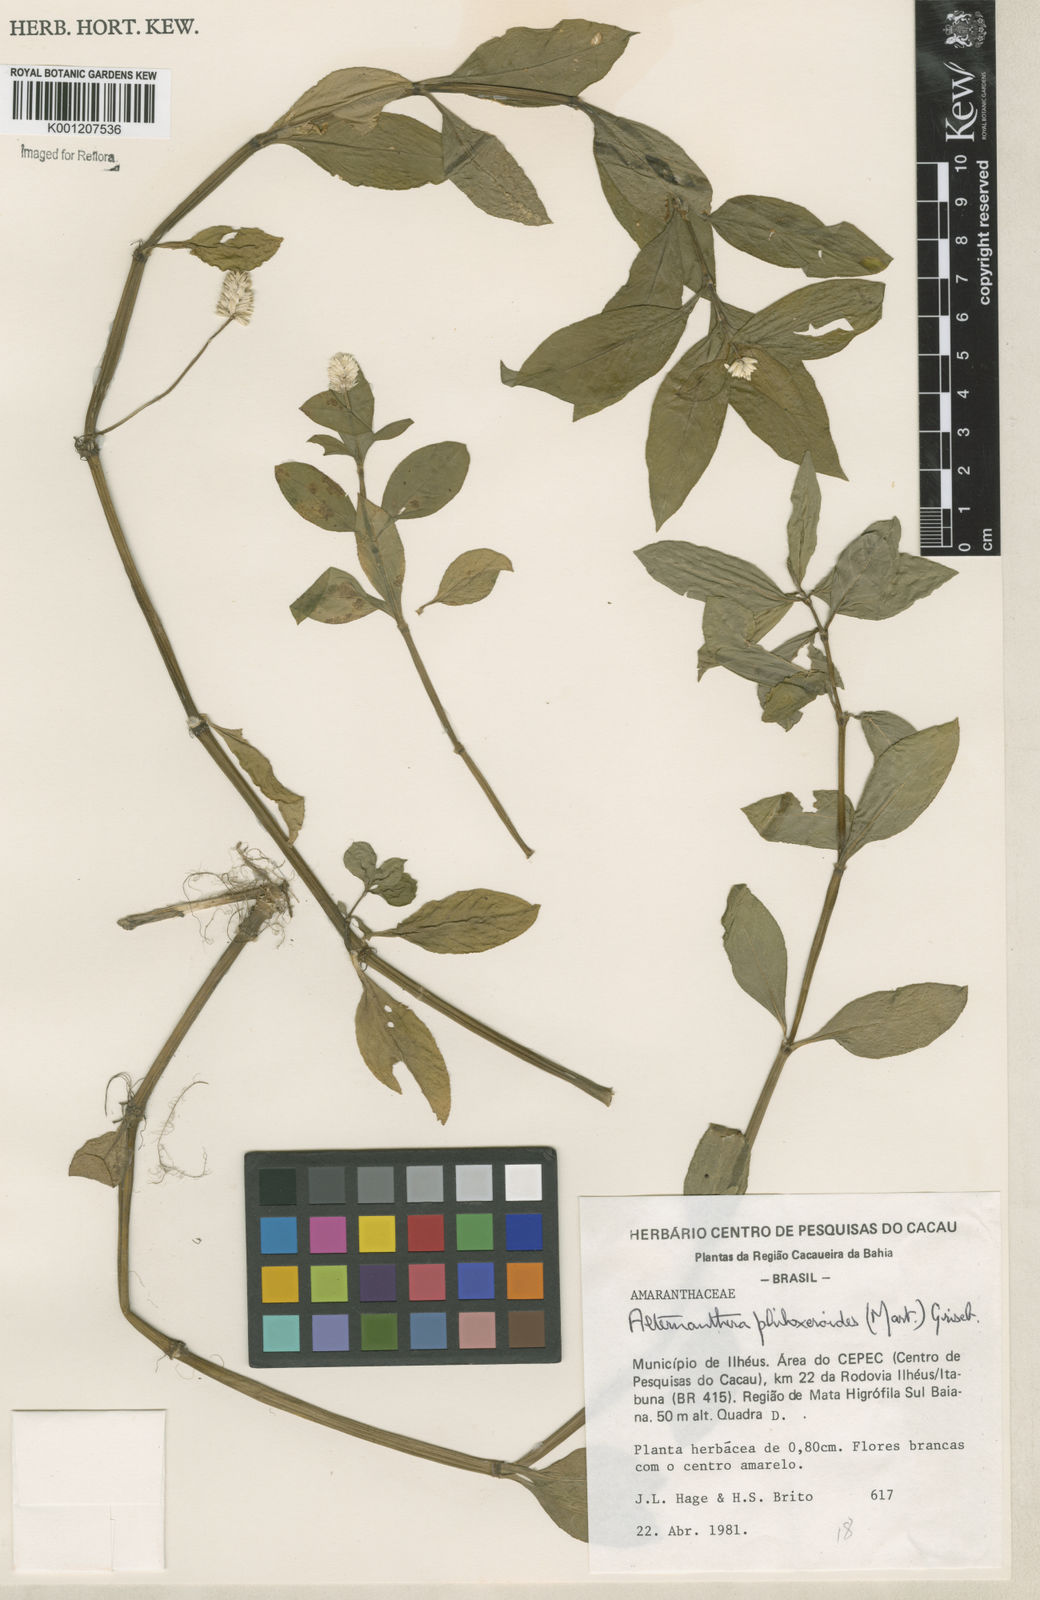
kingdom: Plantae
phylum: Tracheophyta
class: Magnoliopsida
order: Caryophyllales
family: Amaranthaceae
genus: Alternanthera
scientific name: Alternanthera philoxeroides
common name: Alligatorweed
